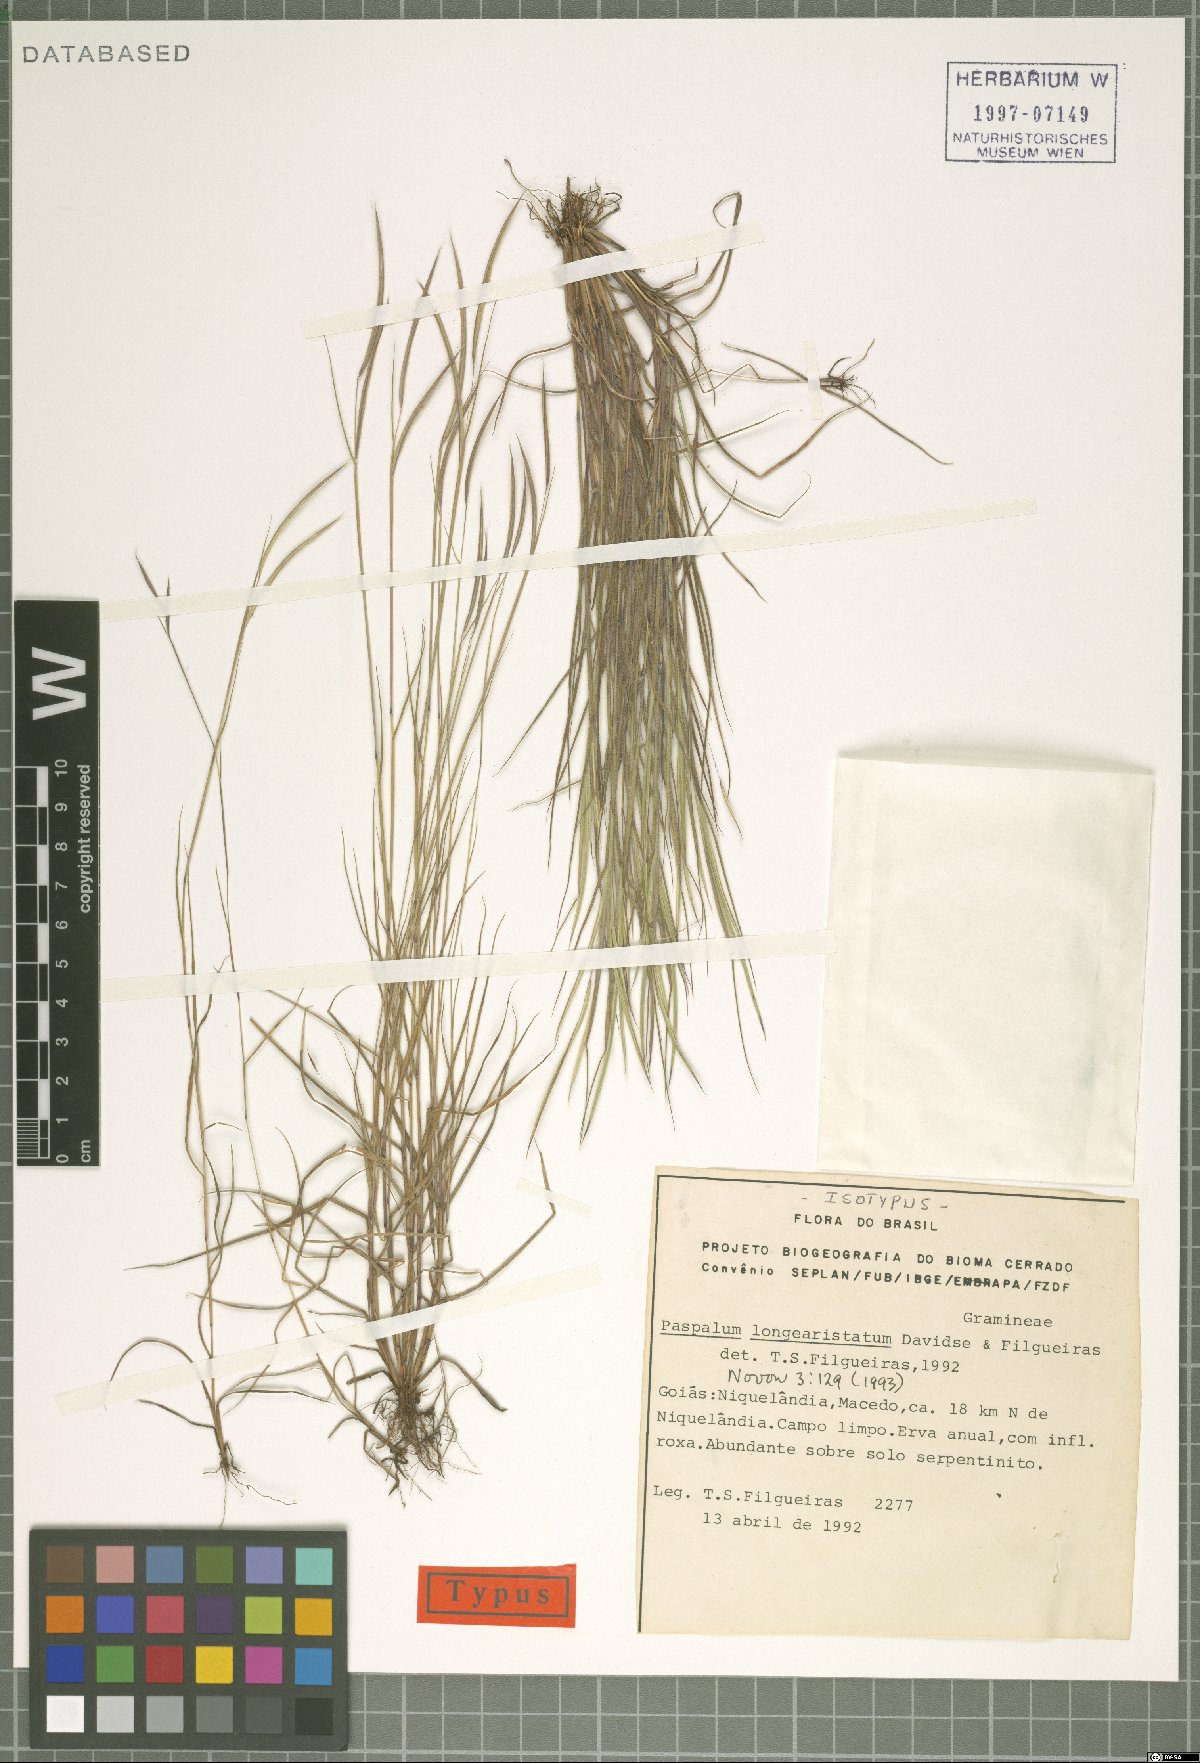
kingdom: Plantae
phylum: Tracheophyta
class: Liliopsida
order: Poales
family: Poaceae
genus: Paspalum
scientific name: Paspalum longiaristatum
